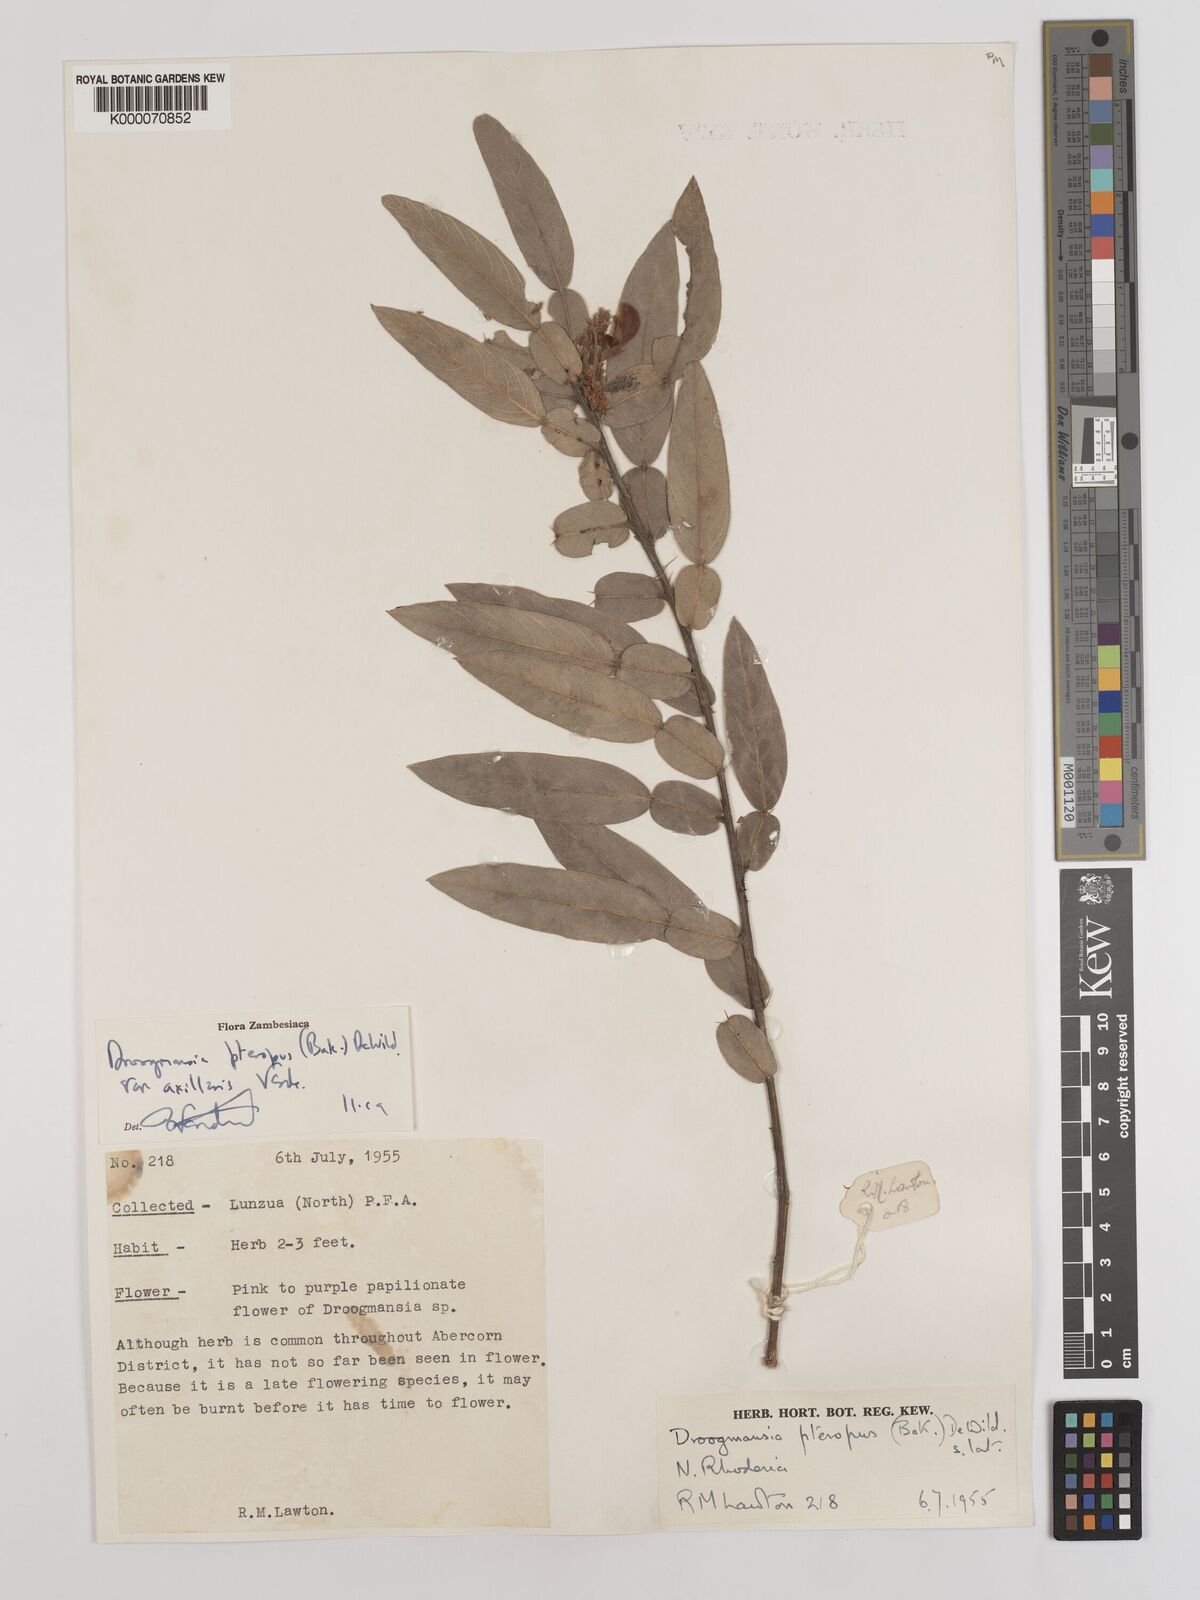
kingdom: Plantae
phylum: Tracheophyta
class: Magnoliopsida
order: Fabales
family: Fabaceae
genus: Droogmansia
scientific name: Droogmansia pteropus
